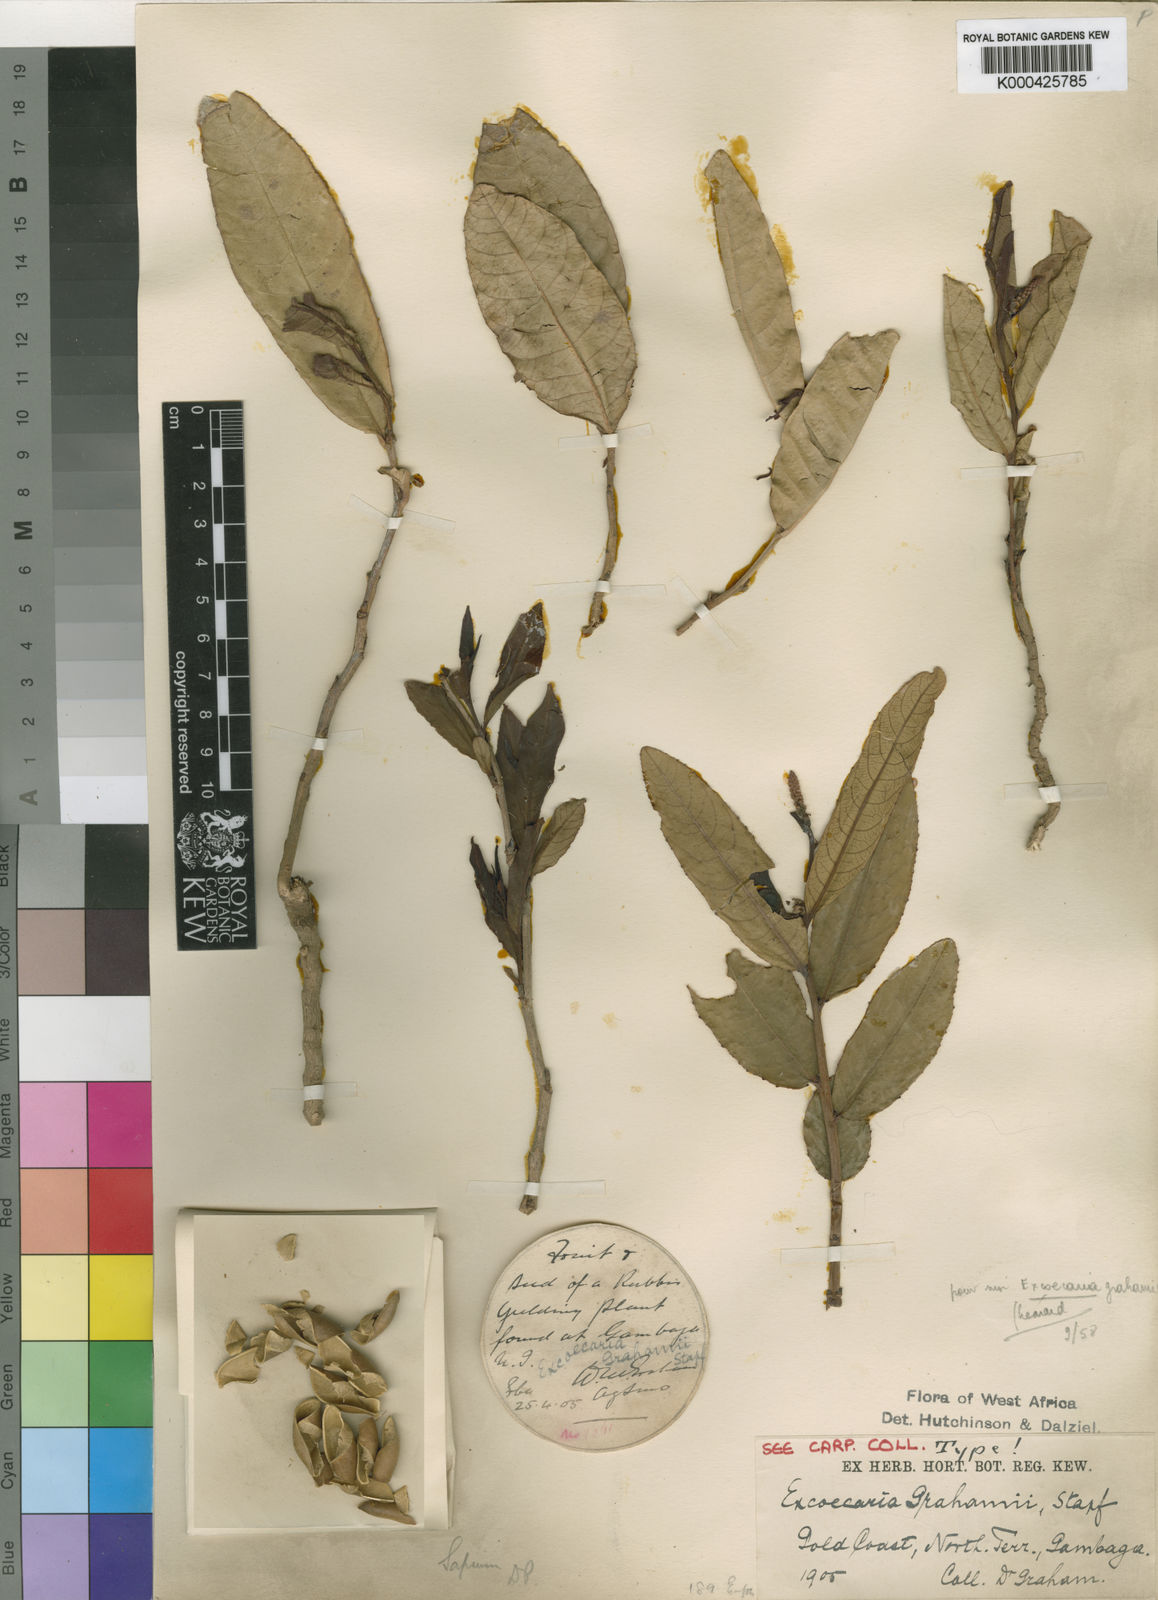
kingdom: Plantae
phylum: Tracheophyta
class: Magnoliopsida
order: Malpighiales
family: Euphorbiaceae
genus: Excoecaria
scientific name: Excoecaria grahamii
